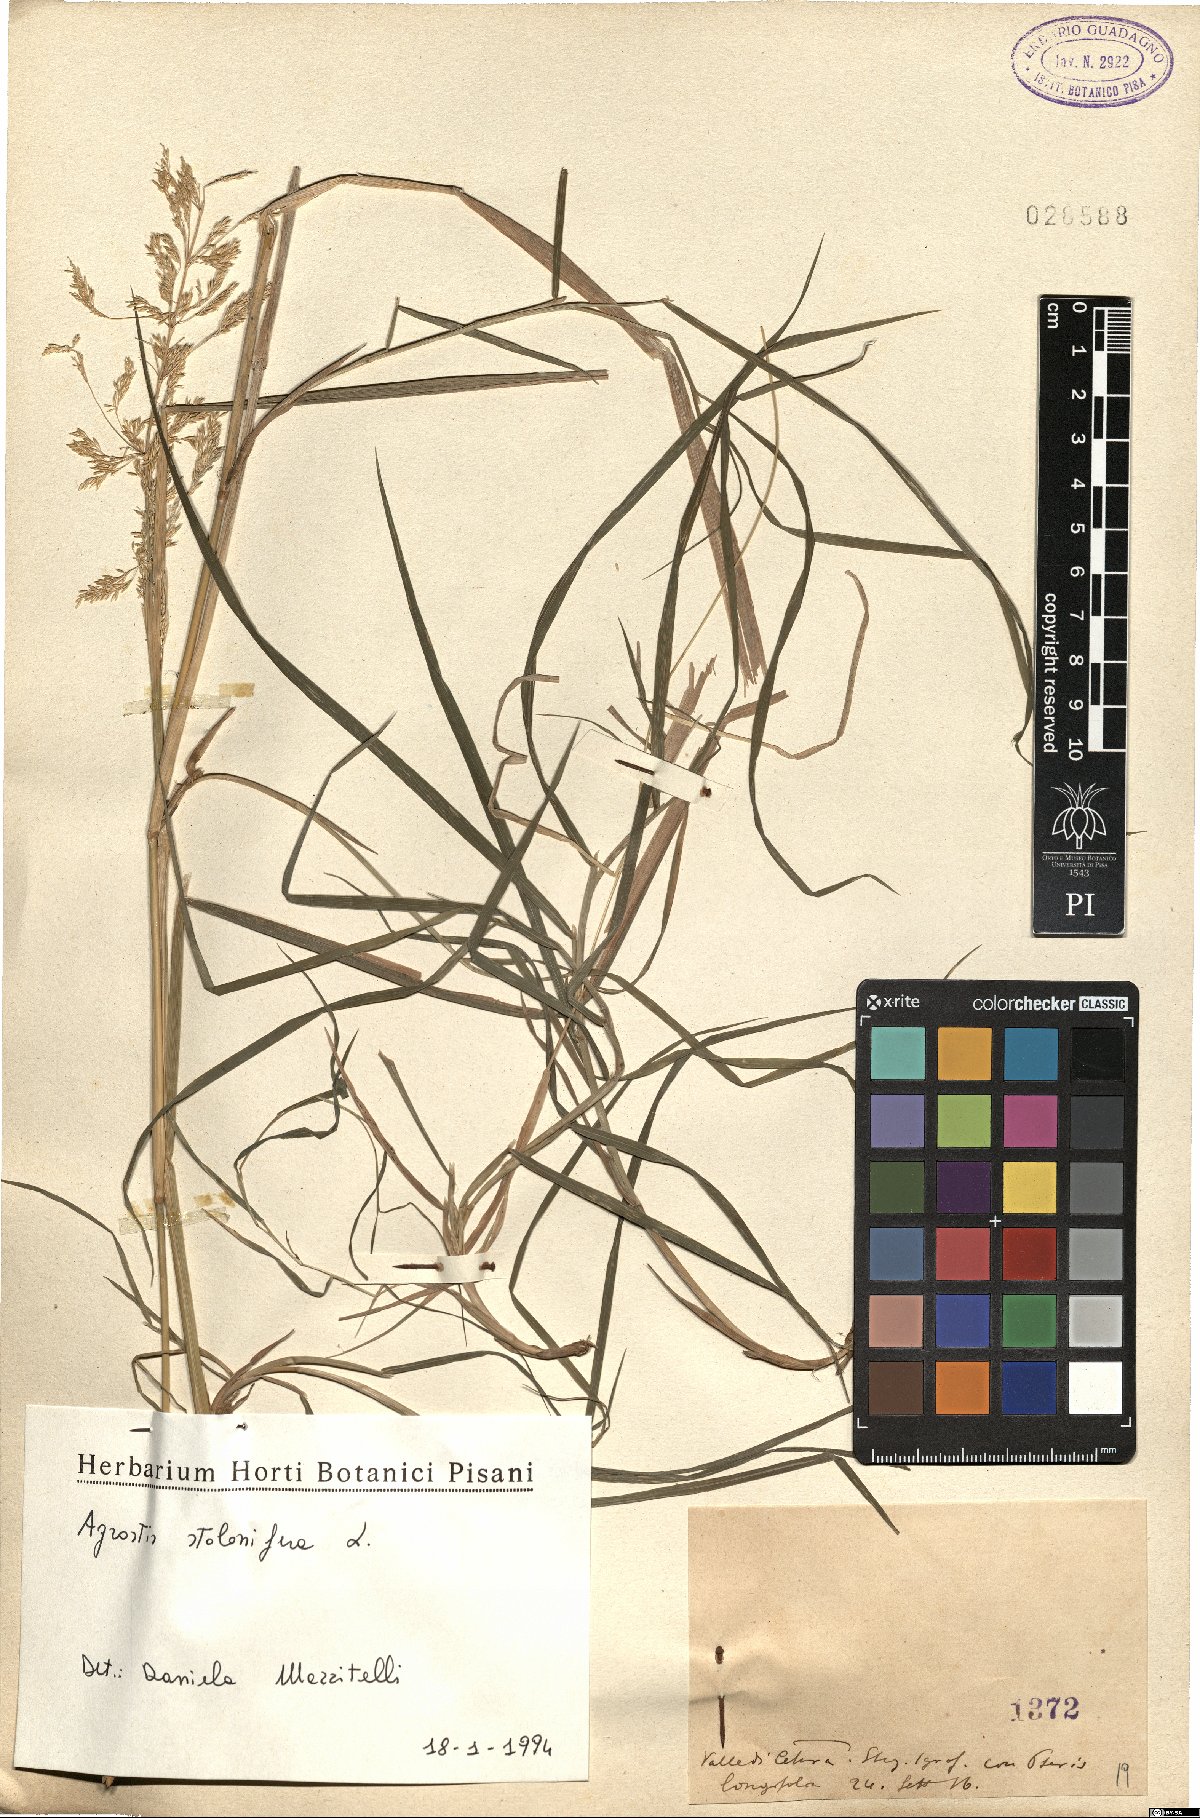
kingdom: Plantae
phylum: Tracheophyta
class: Liliopsida
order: Poales
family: Poaceae
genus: Agrostis
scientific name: Agrostis stolonifera
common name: Creeping bentgrass
